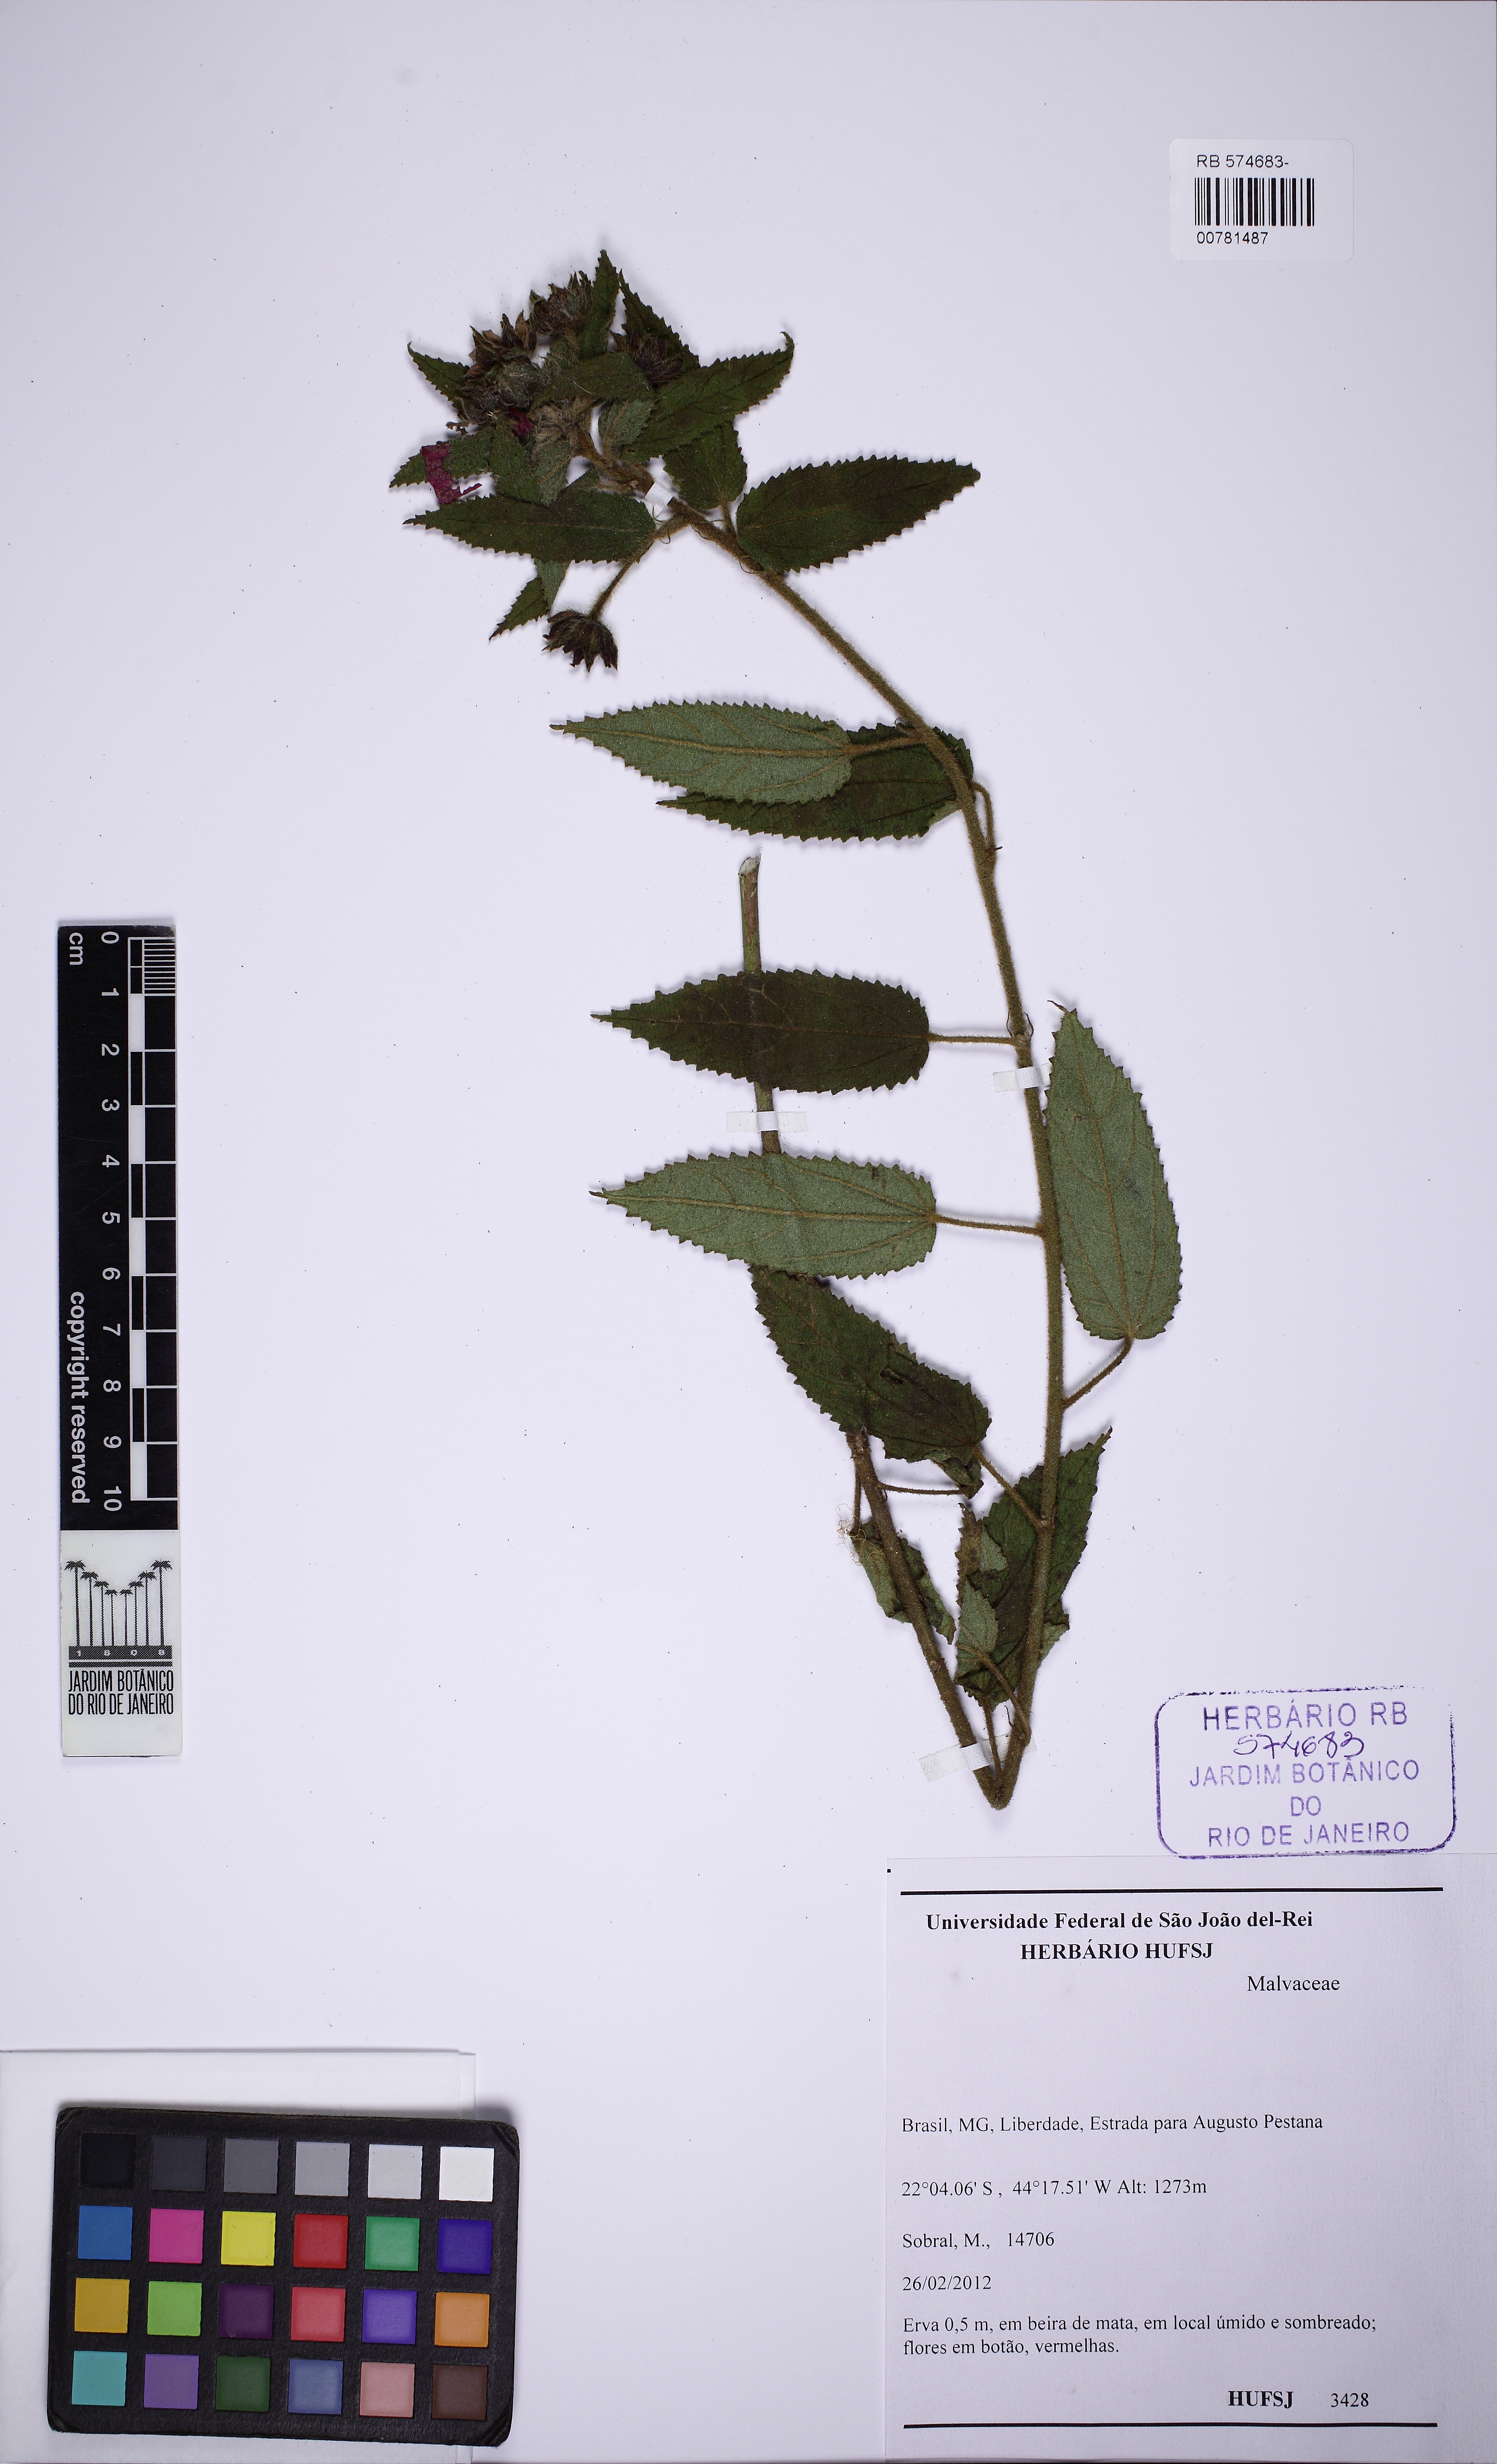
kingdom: Plantae
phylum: Tracheophyta
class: Magnoliopsida
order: Malvales
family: Malvaceae
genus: Pavonia
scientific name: Pavonia
